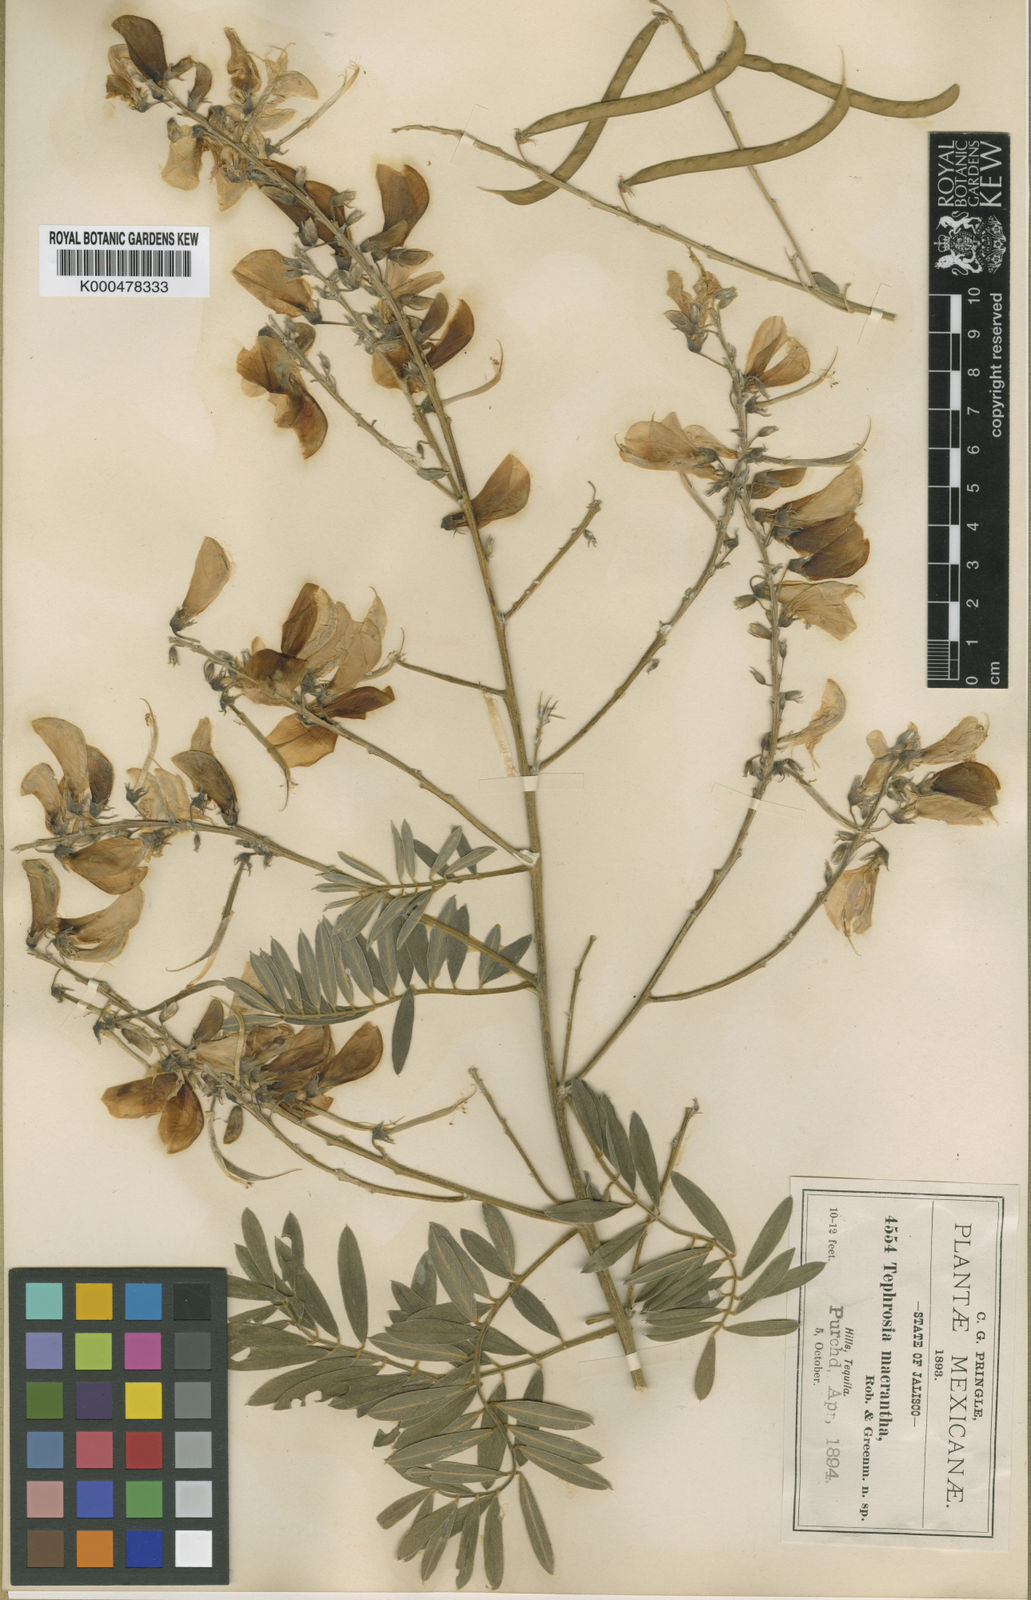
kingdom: Plantae
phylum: Tracheophyta
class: Magnoliopsida
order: Fabales
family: Fabaceae
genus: Tephrosia
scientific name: Tephrosia macrantha
